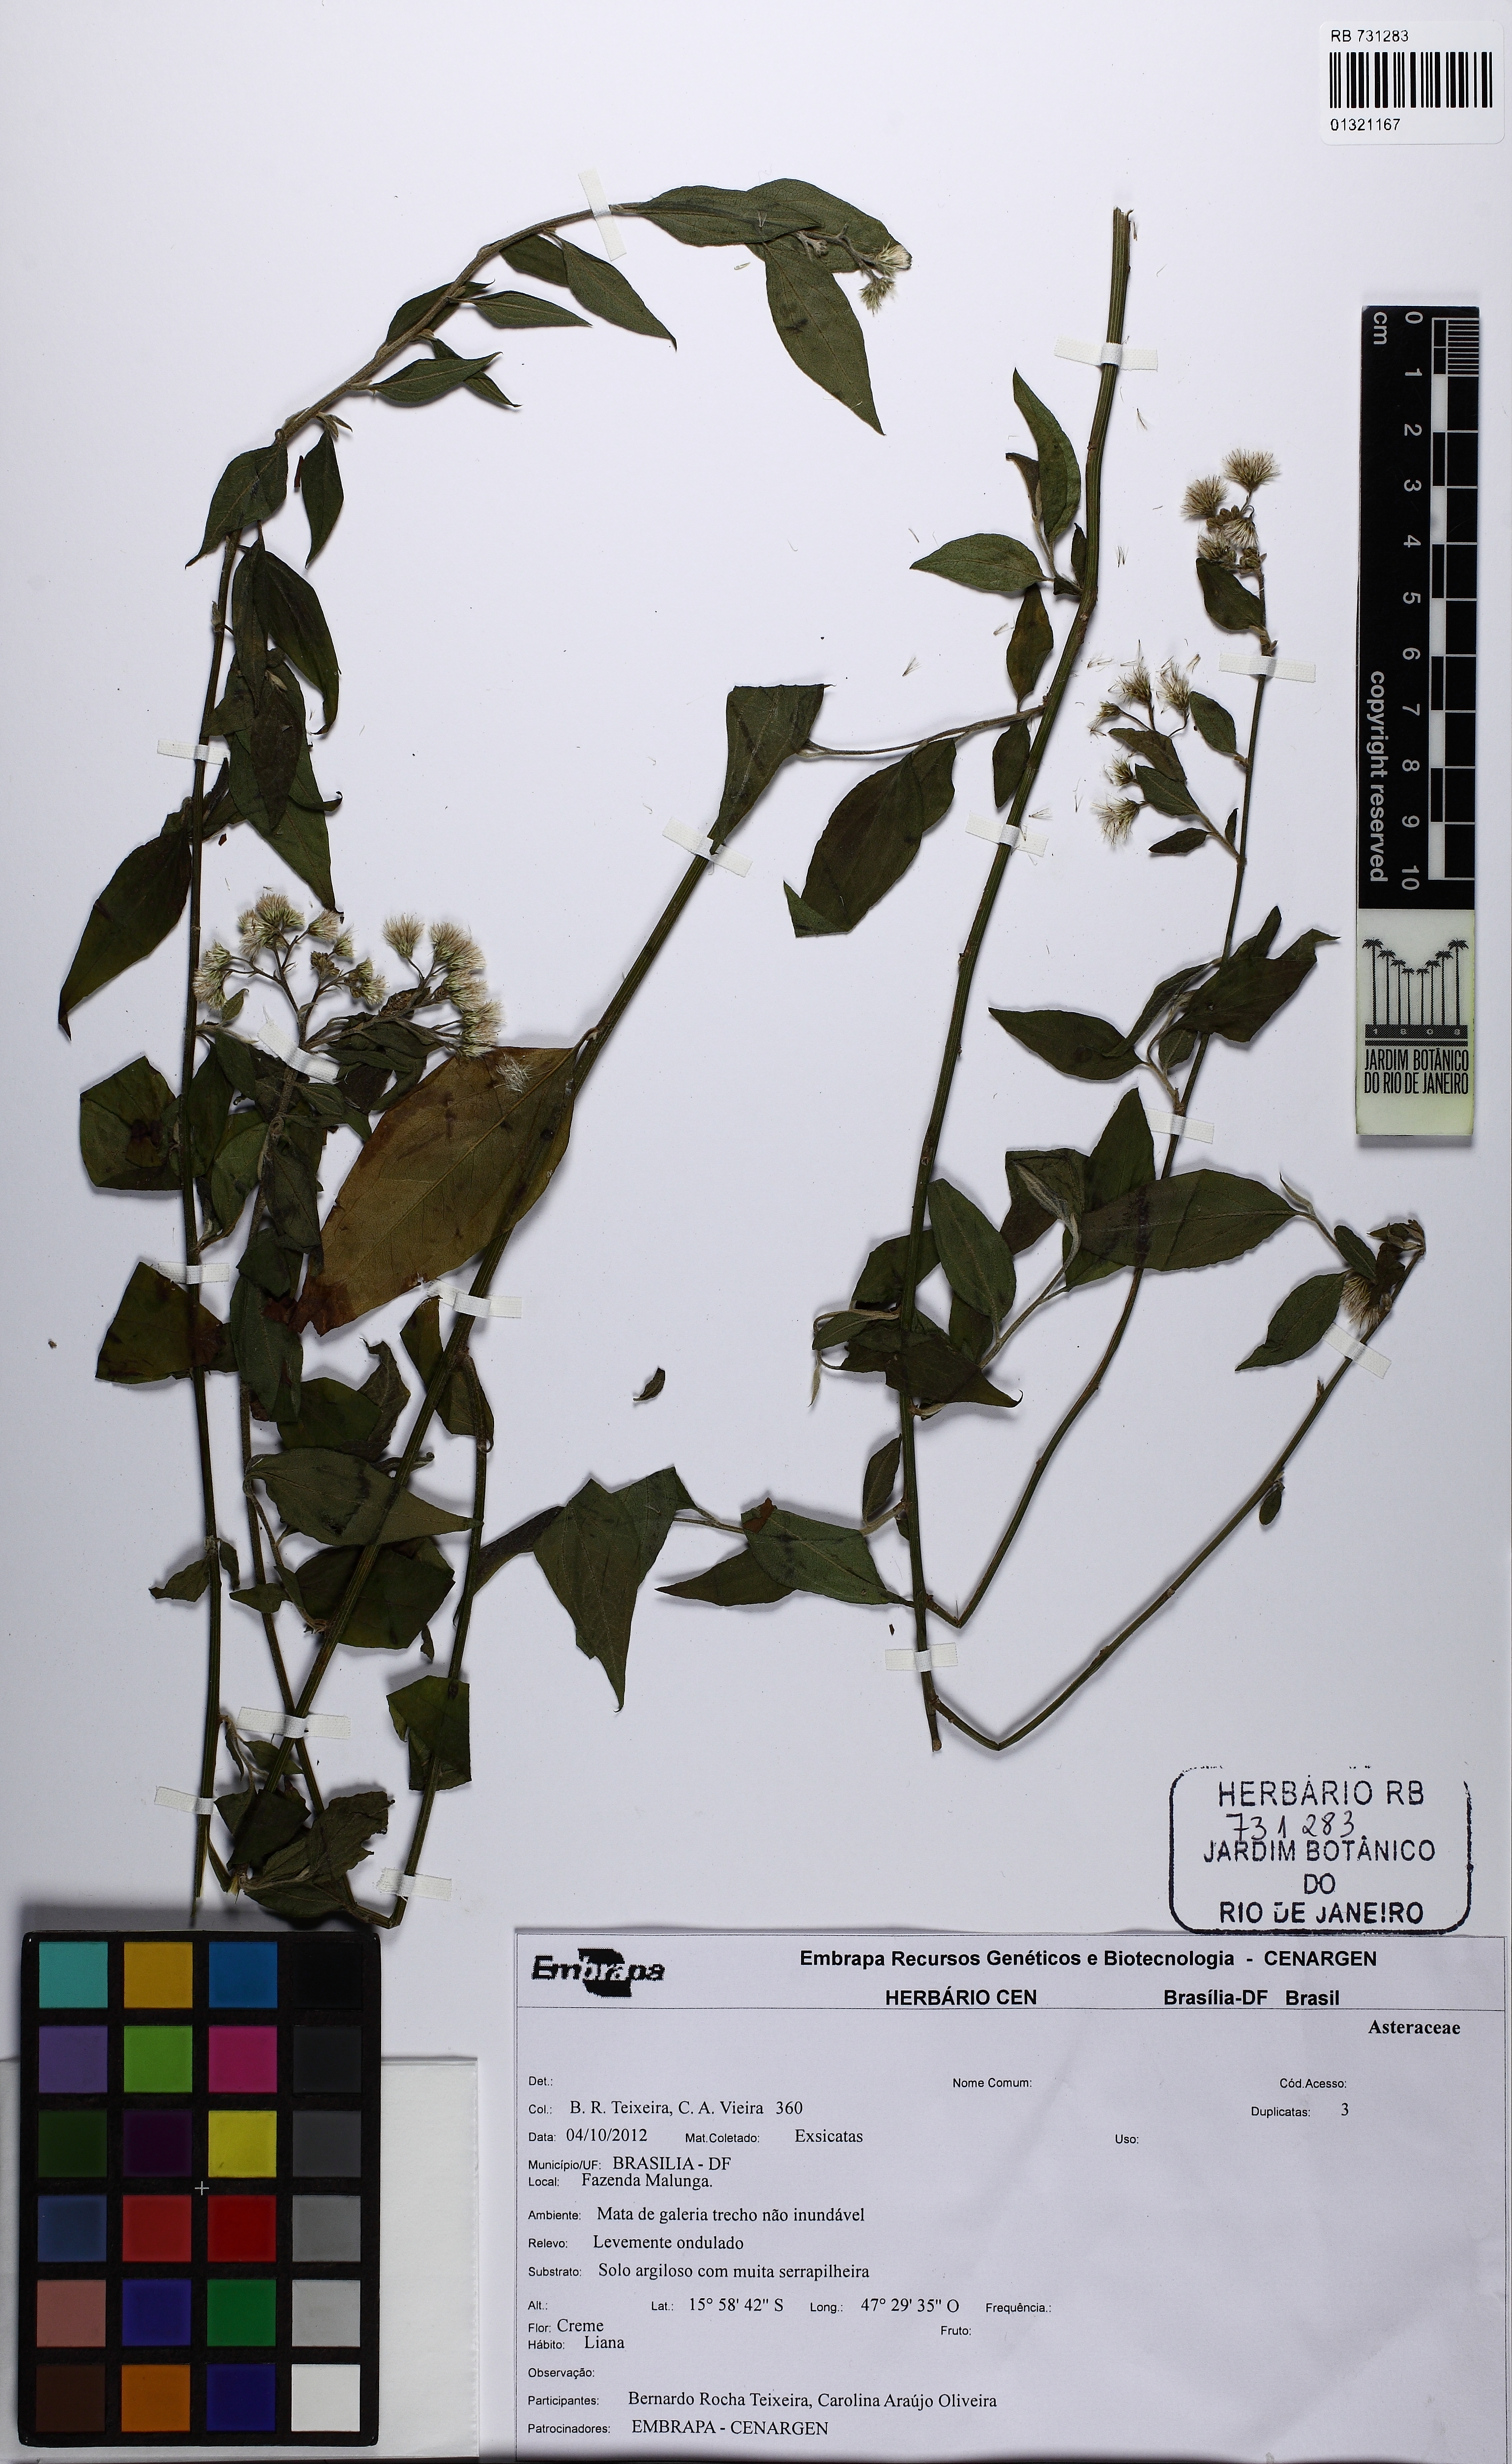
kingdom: Plantae
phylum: Tracheophyta
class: Magnoliopsida
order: Asterales
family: Asteraceae
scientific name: Asteraceae
